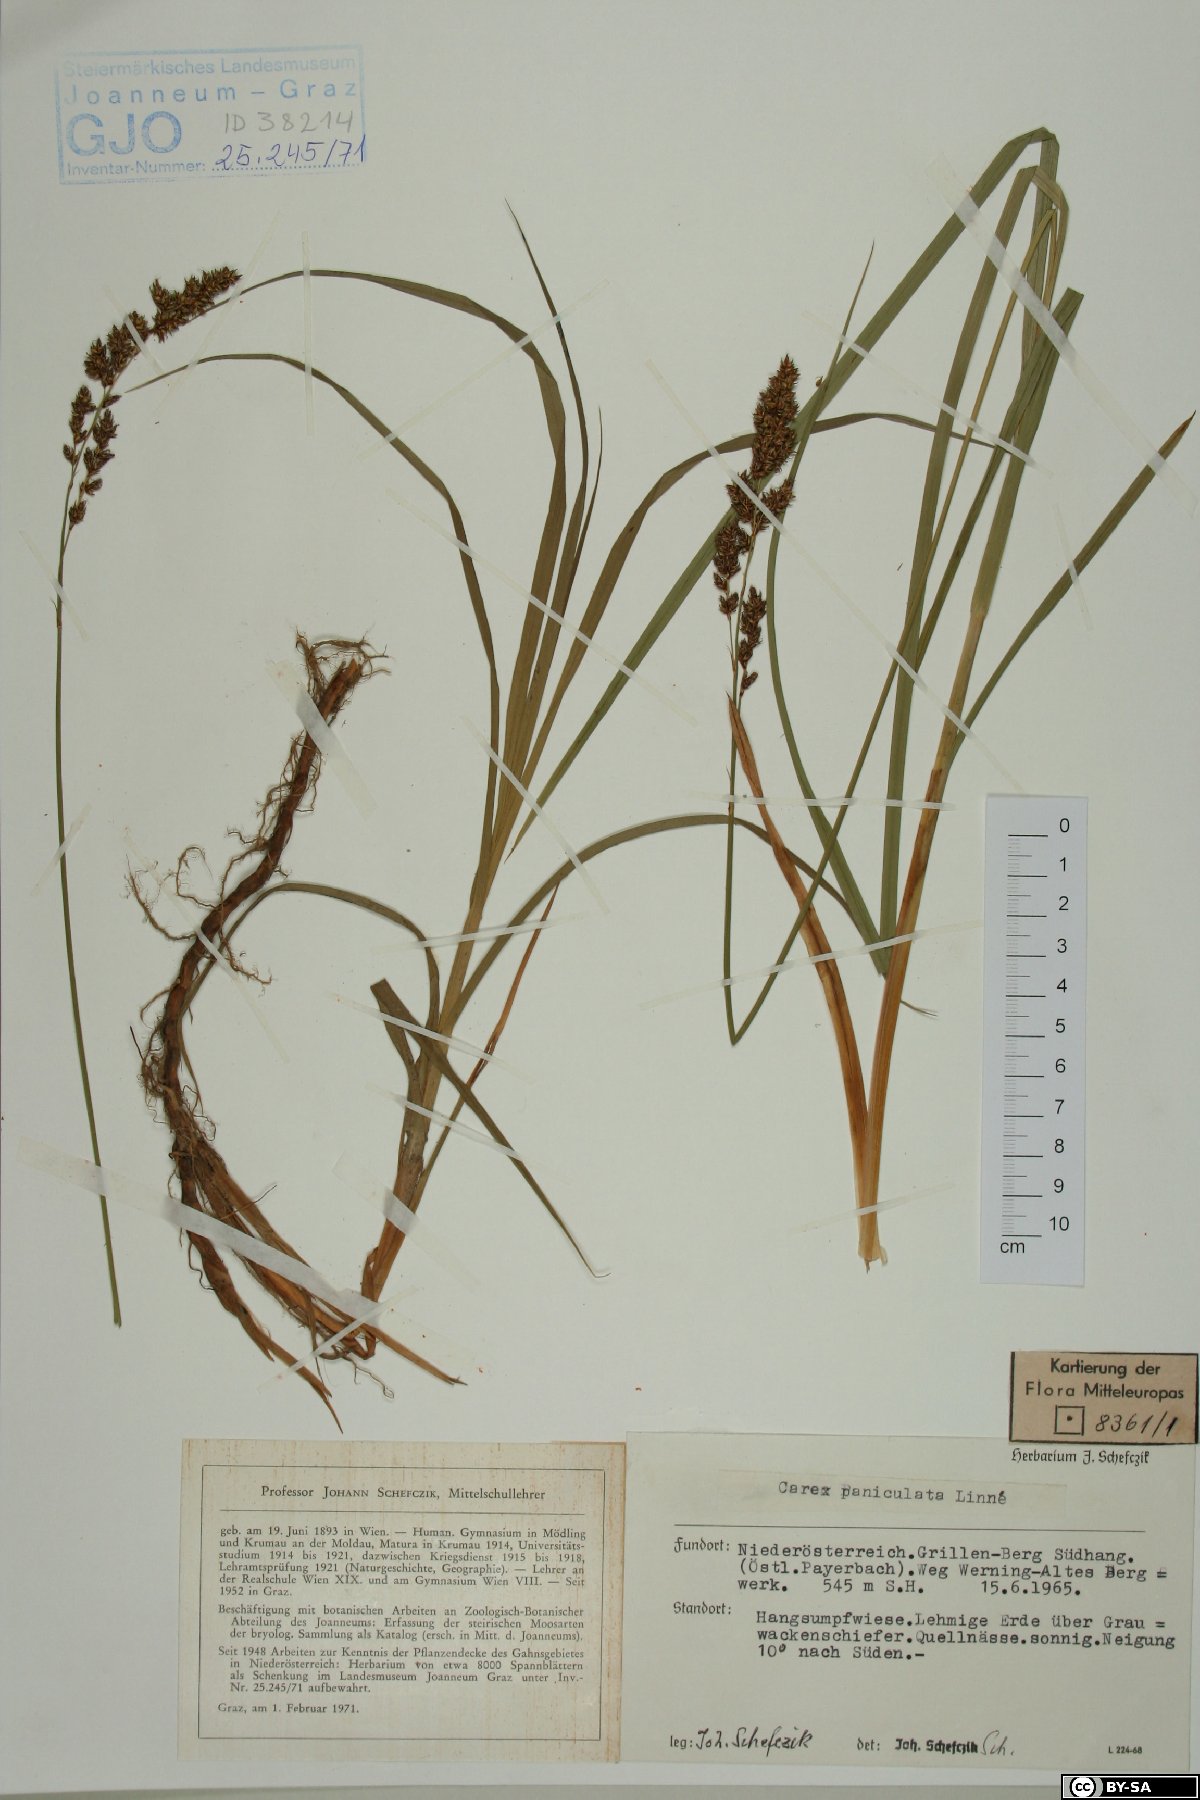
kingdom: Plantae
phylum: Tracheophyta
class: Liliopsida
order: Poales
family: Cyperaceae
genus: Carex
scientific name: Carex paniculata
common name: Greater tussock-sedge
